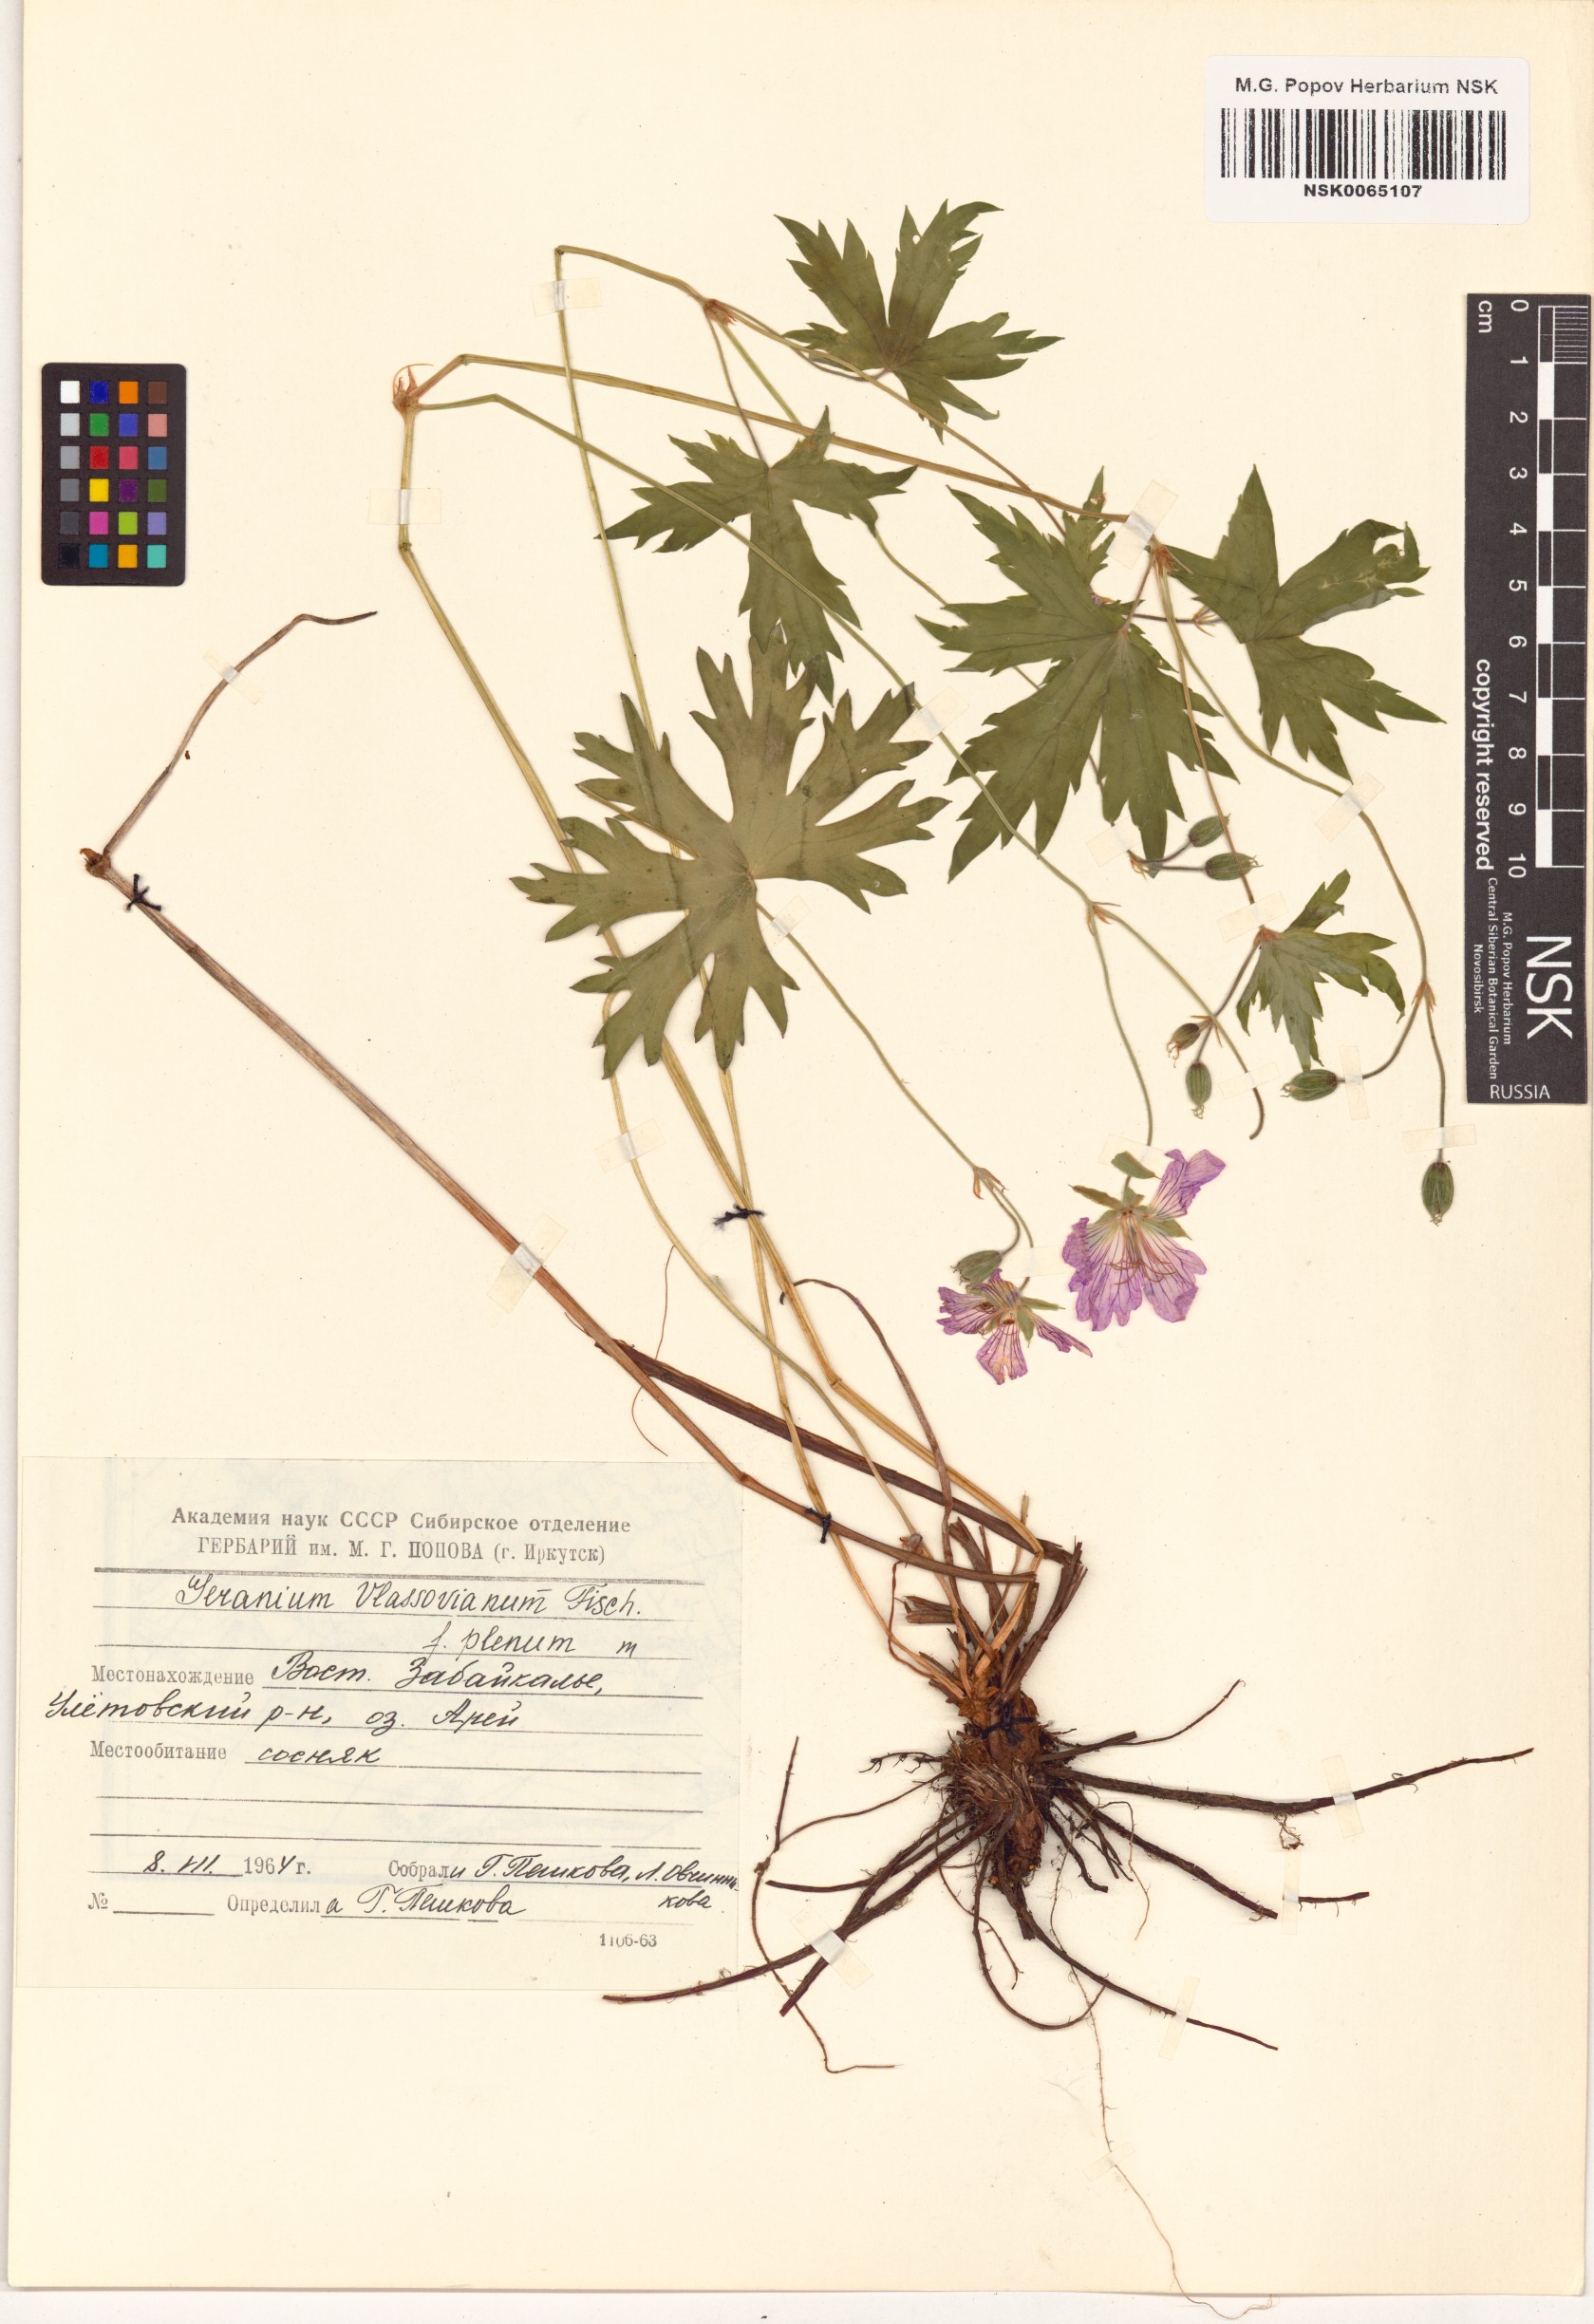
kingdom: Plantae
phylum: Tracheophyta
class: Magnoliopsida
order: Geraniales
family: Geraniaceae
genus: Geranium
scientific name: Geranium wlassovianum
